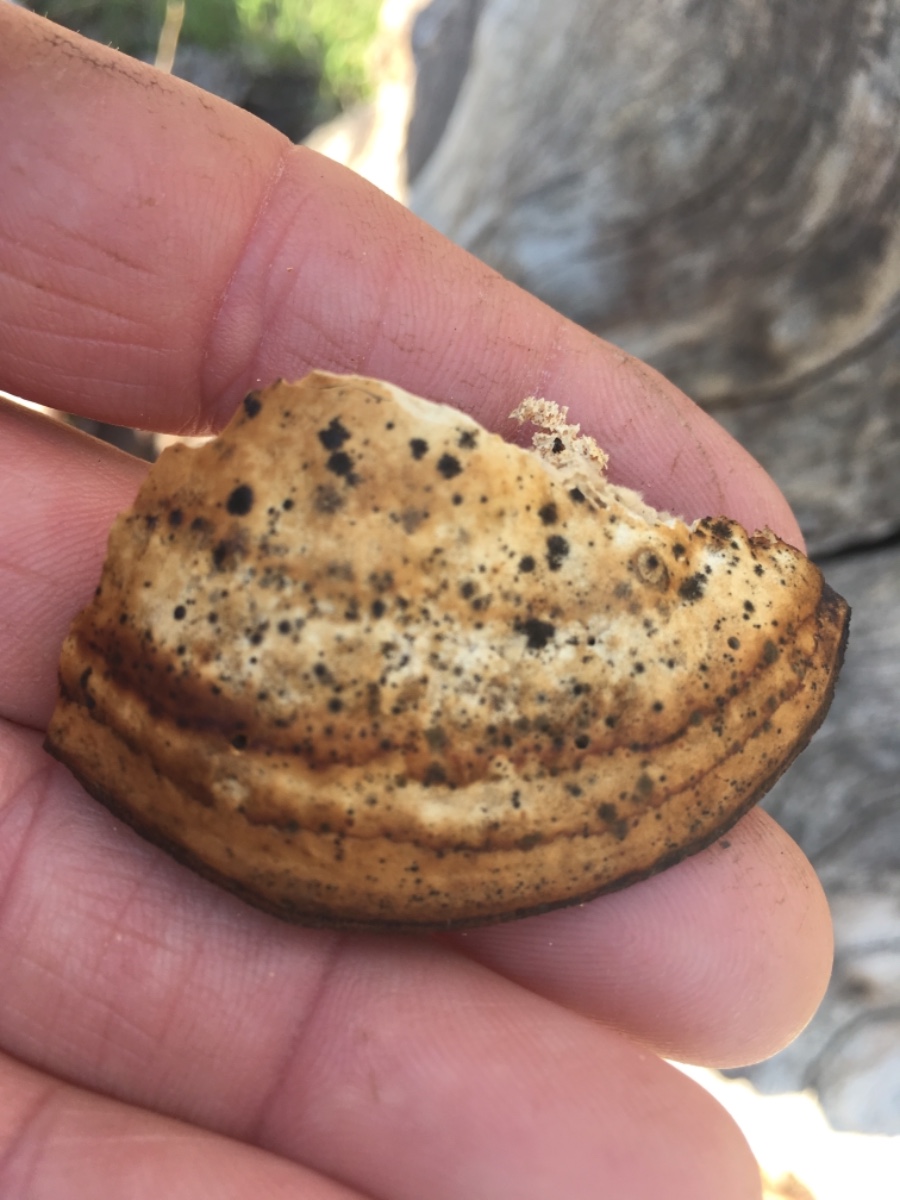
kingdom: Fungi
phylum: Basidiomycota
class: Agaricomycetes
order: Polyporales
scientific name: Polyporales
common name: poresvampordenen
